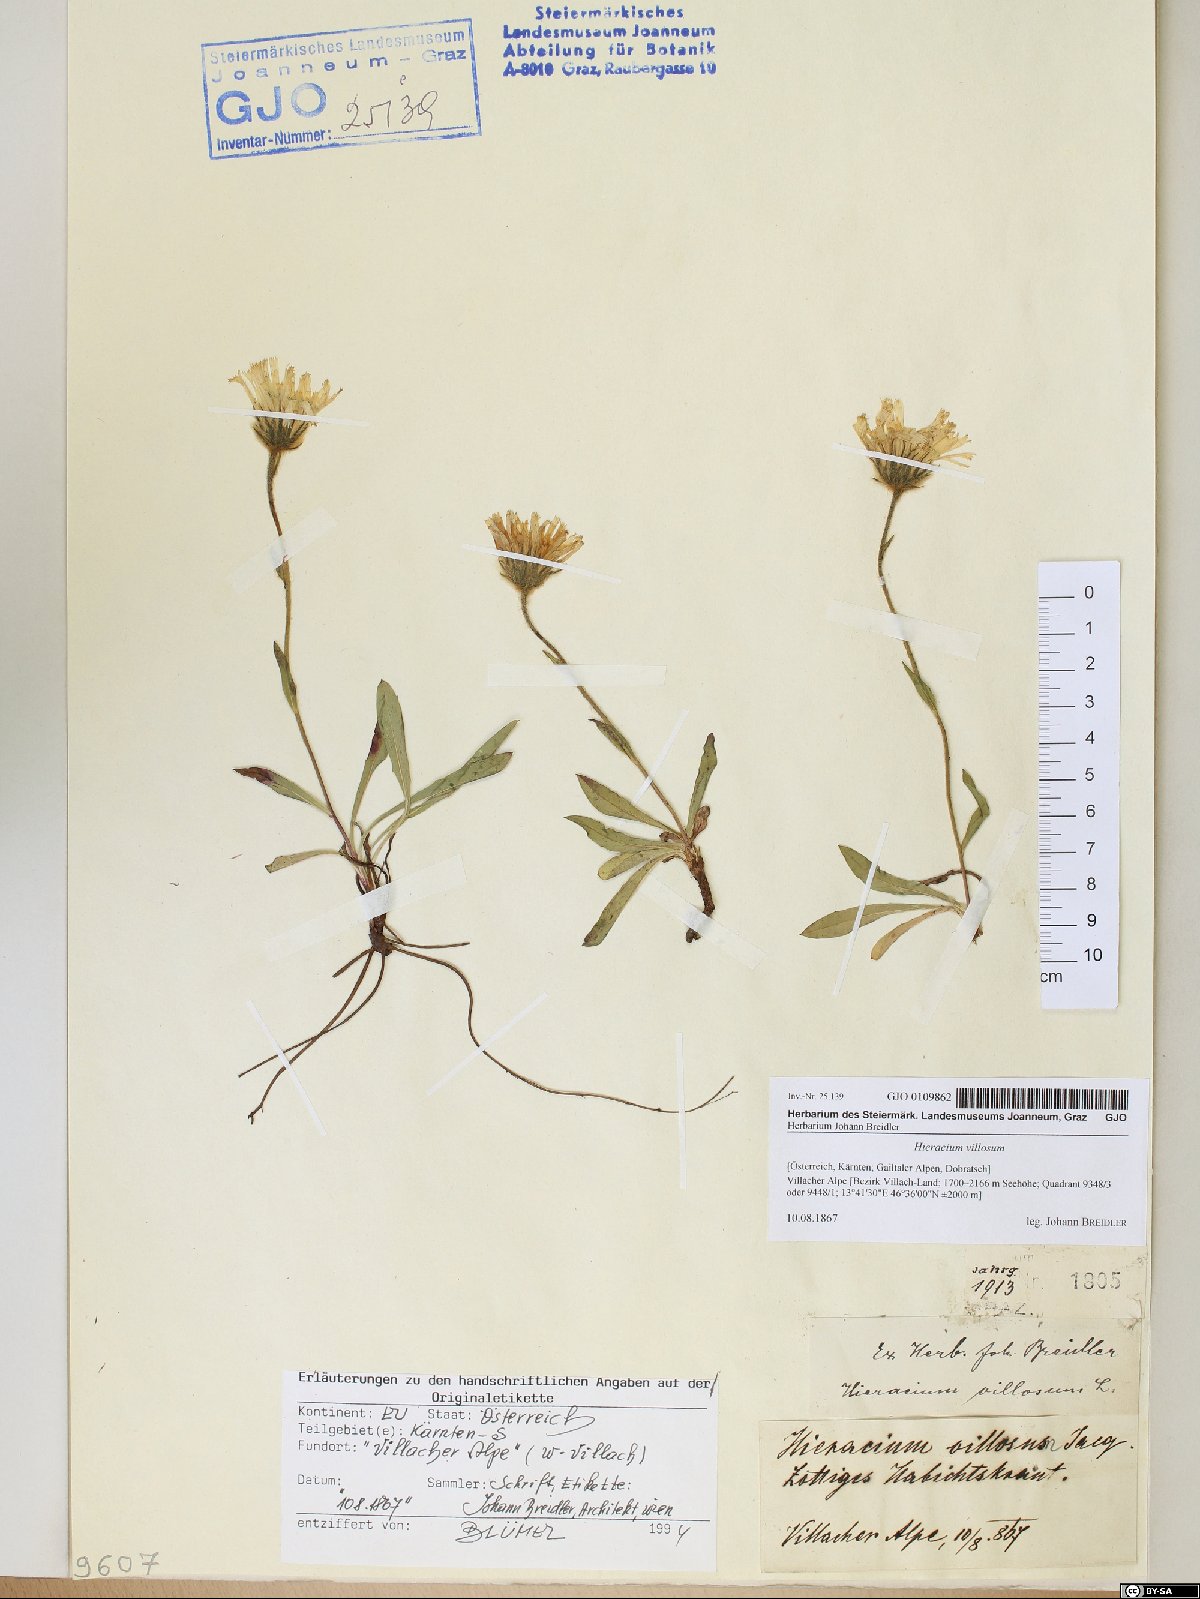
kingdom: Plantae
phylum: Tracheophyta
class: Magnoliopsida
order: Asterales
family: Asteraceae
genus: Hieracium
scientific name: Hieracium villosum
